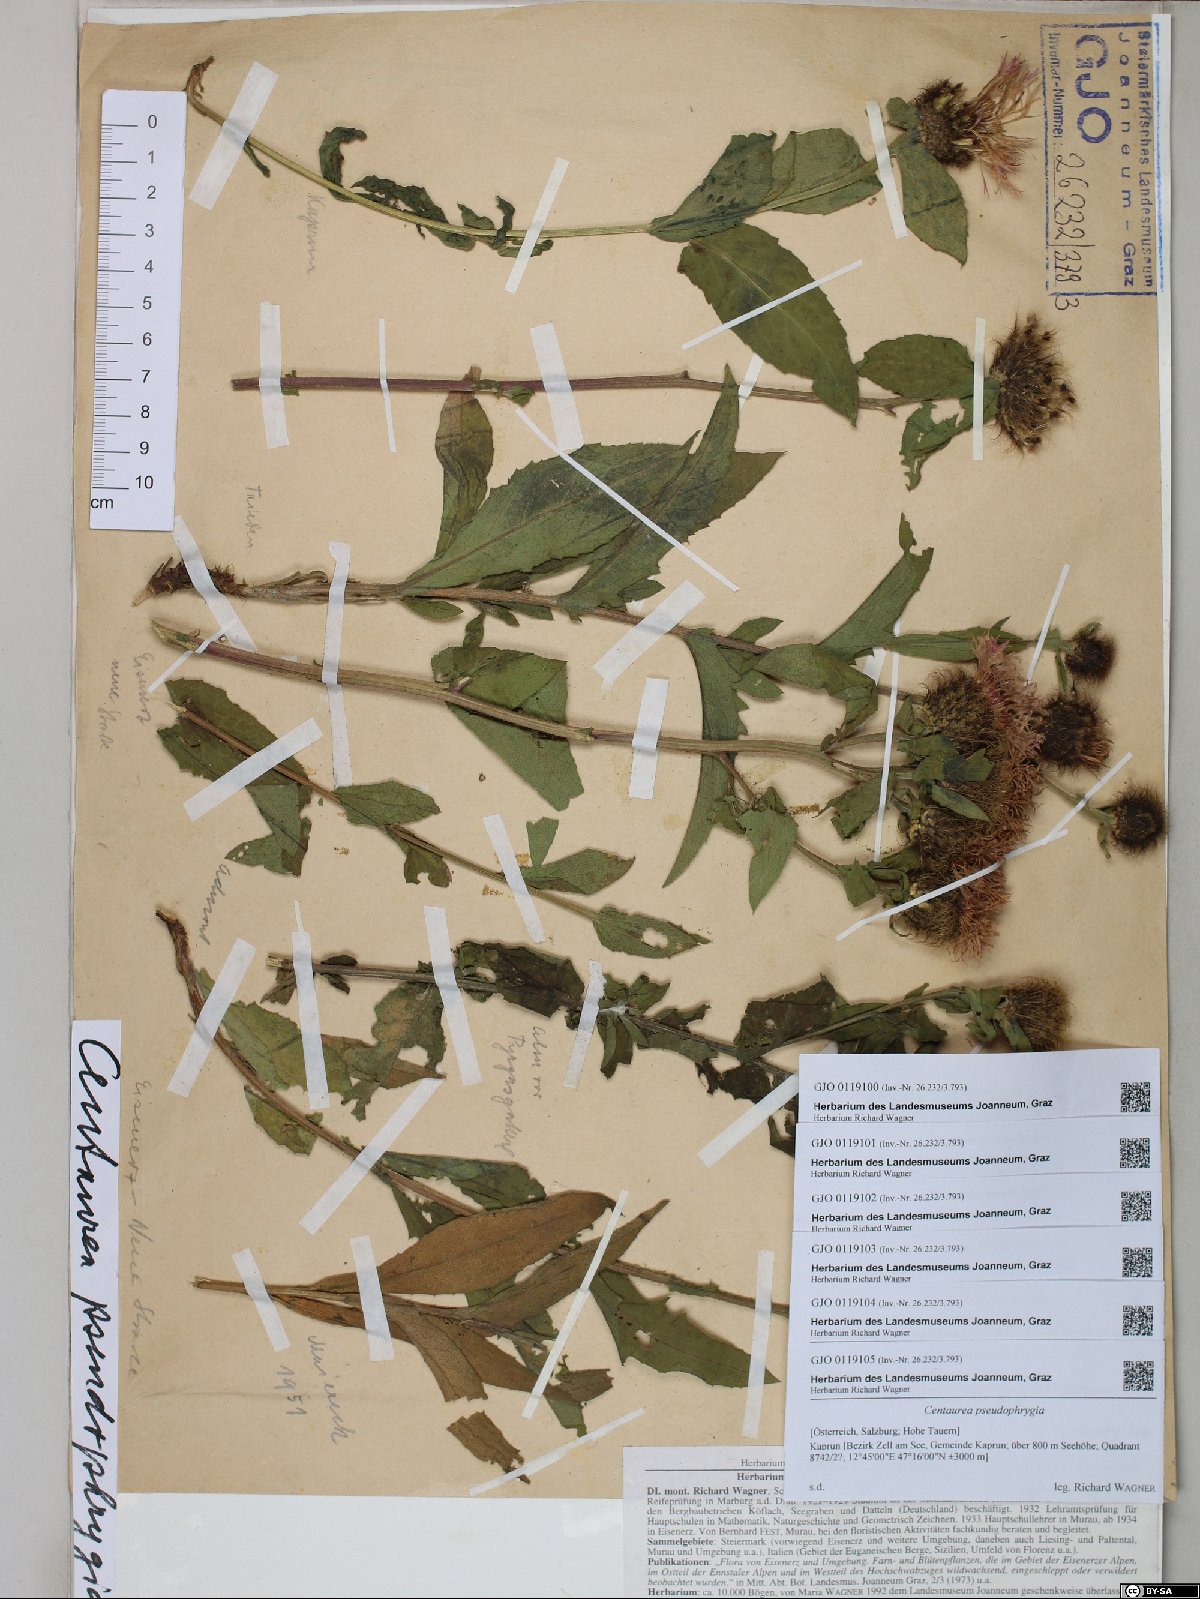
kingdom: Plantae
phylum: Tracheophyta
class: Magnoliopsida
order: Asterales
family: Asteraceae
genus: Centaurea
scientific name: Centaurea pseudophrygia
